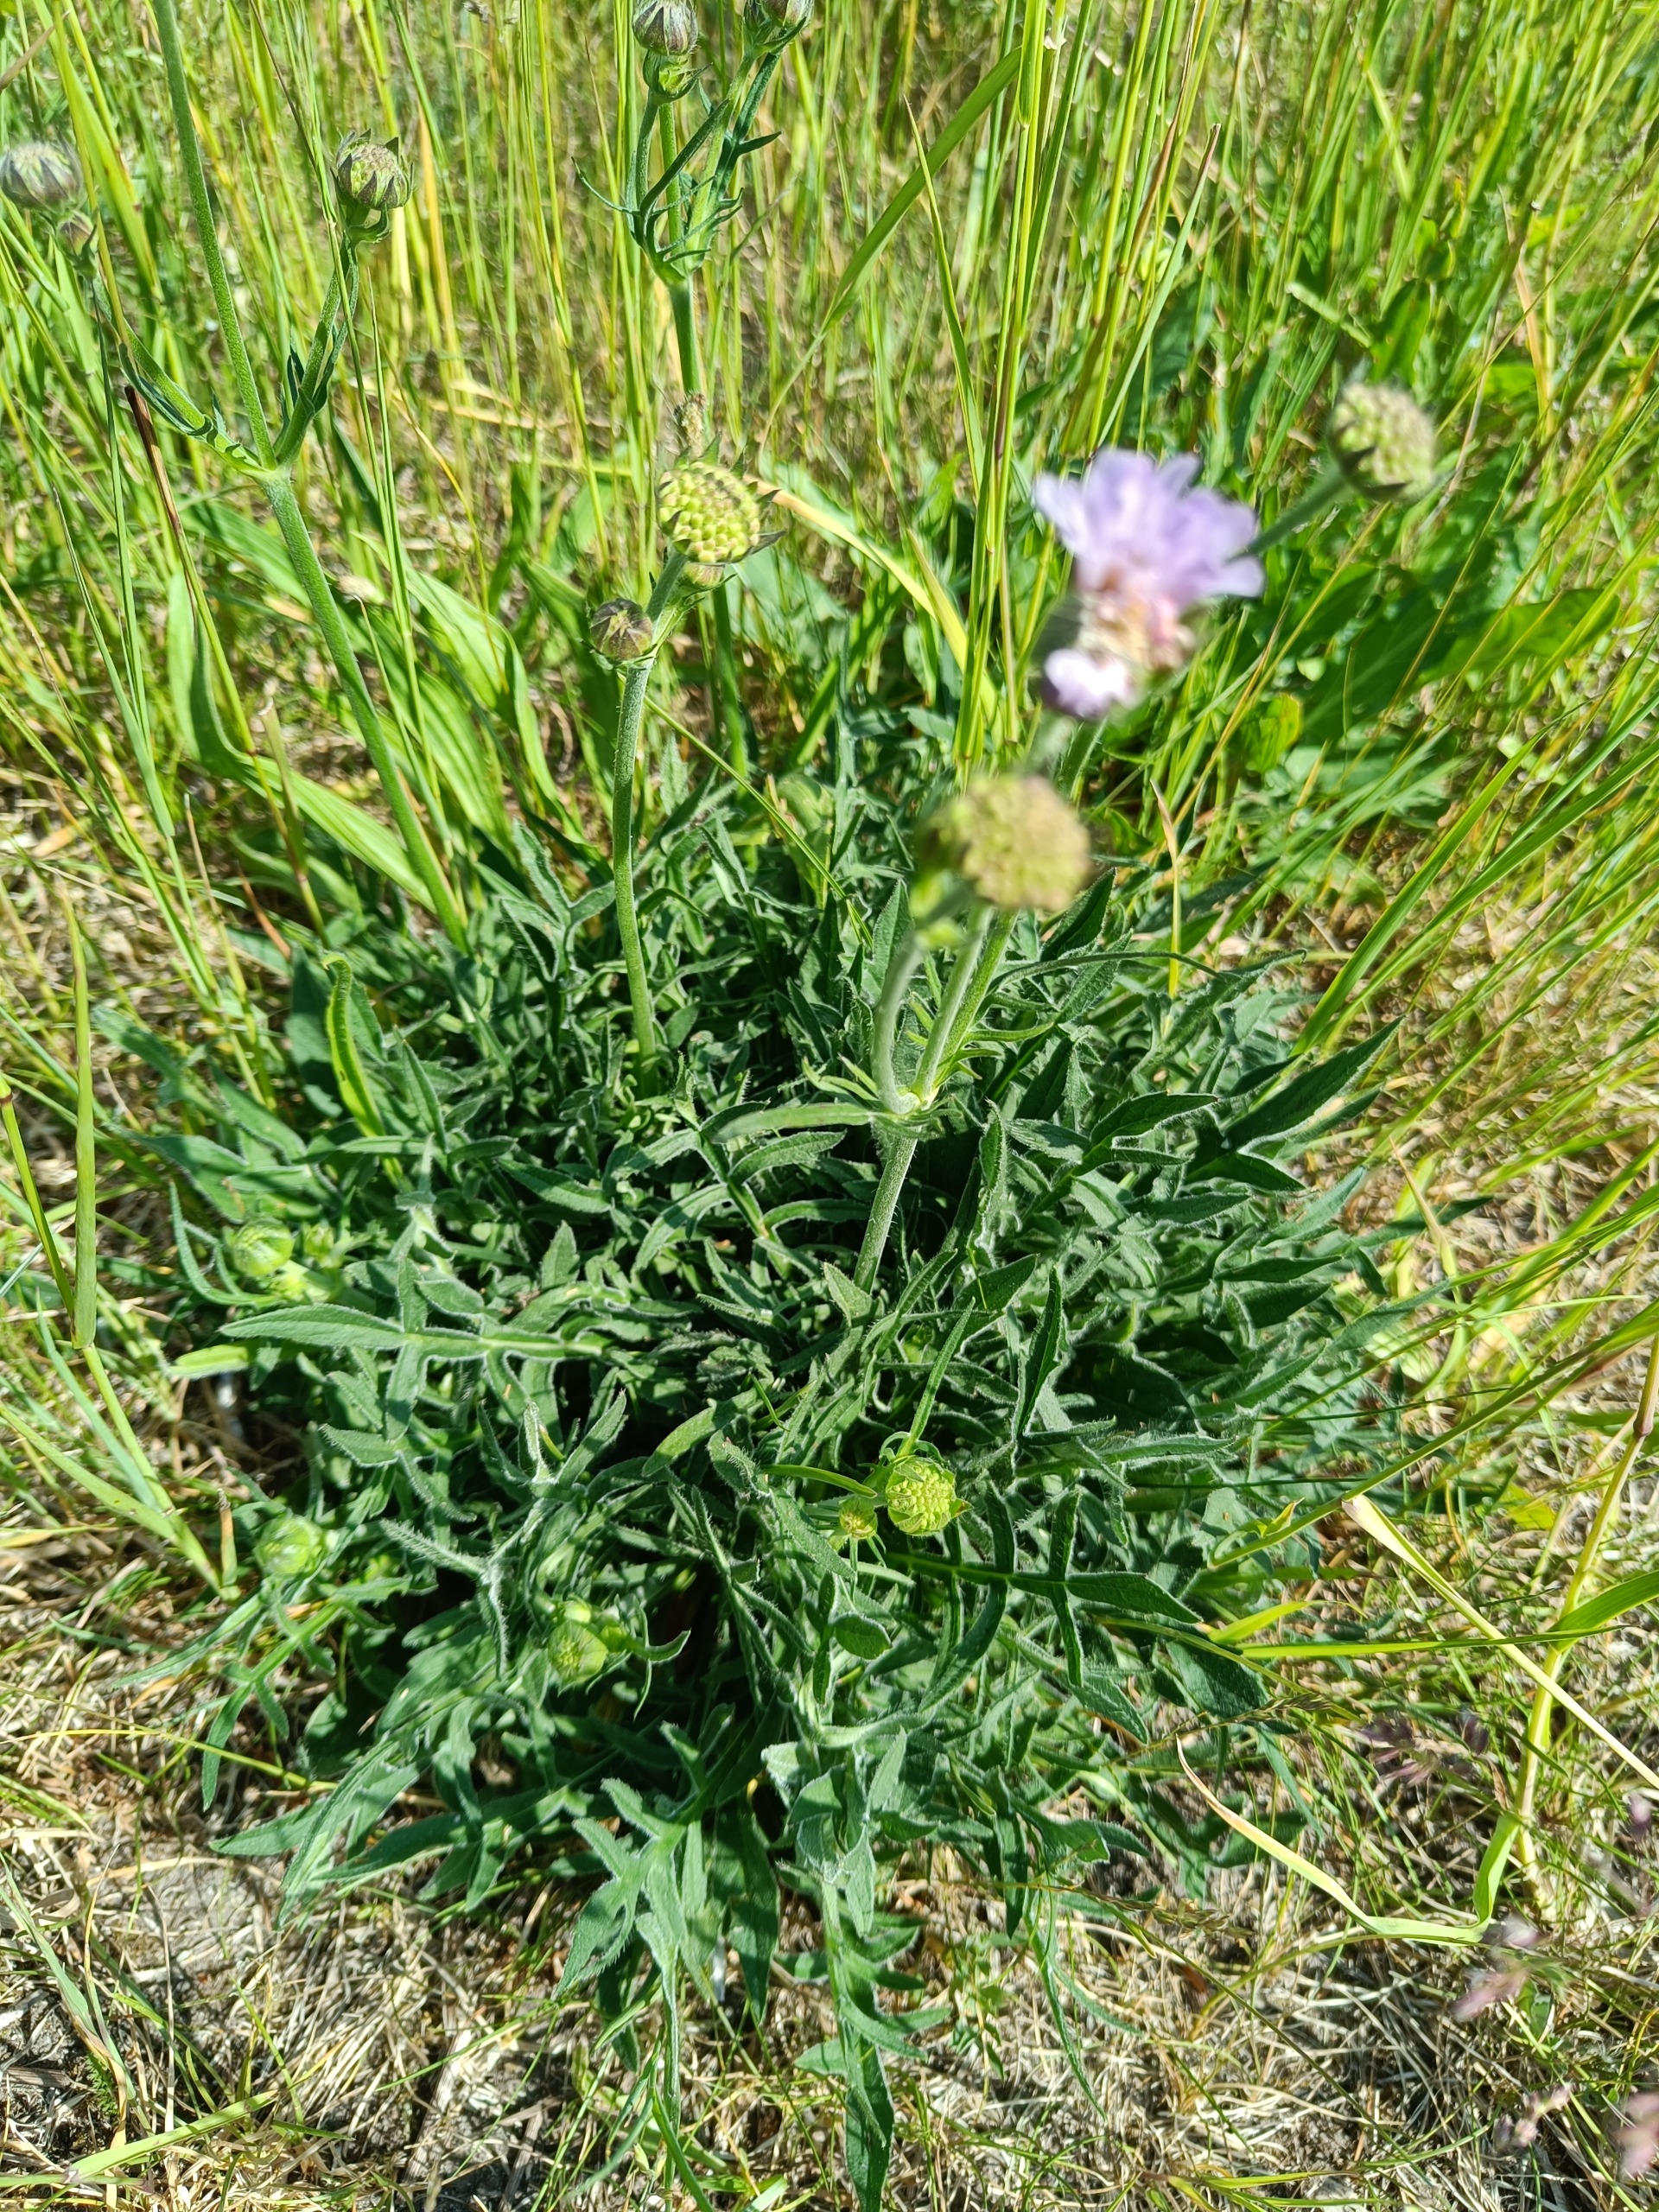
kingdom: Plantae
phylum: Tracheophyta
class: Magnoliopsida
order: Dipsacales
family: Caprifoliaceae
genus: Knautia
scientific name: Knautia arvensis
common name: Blåhat
